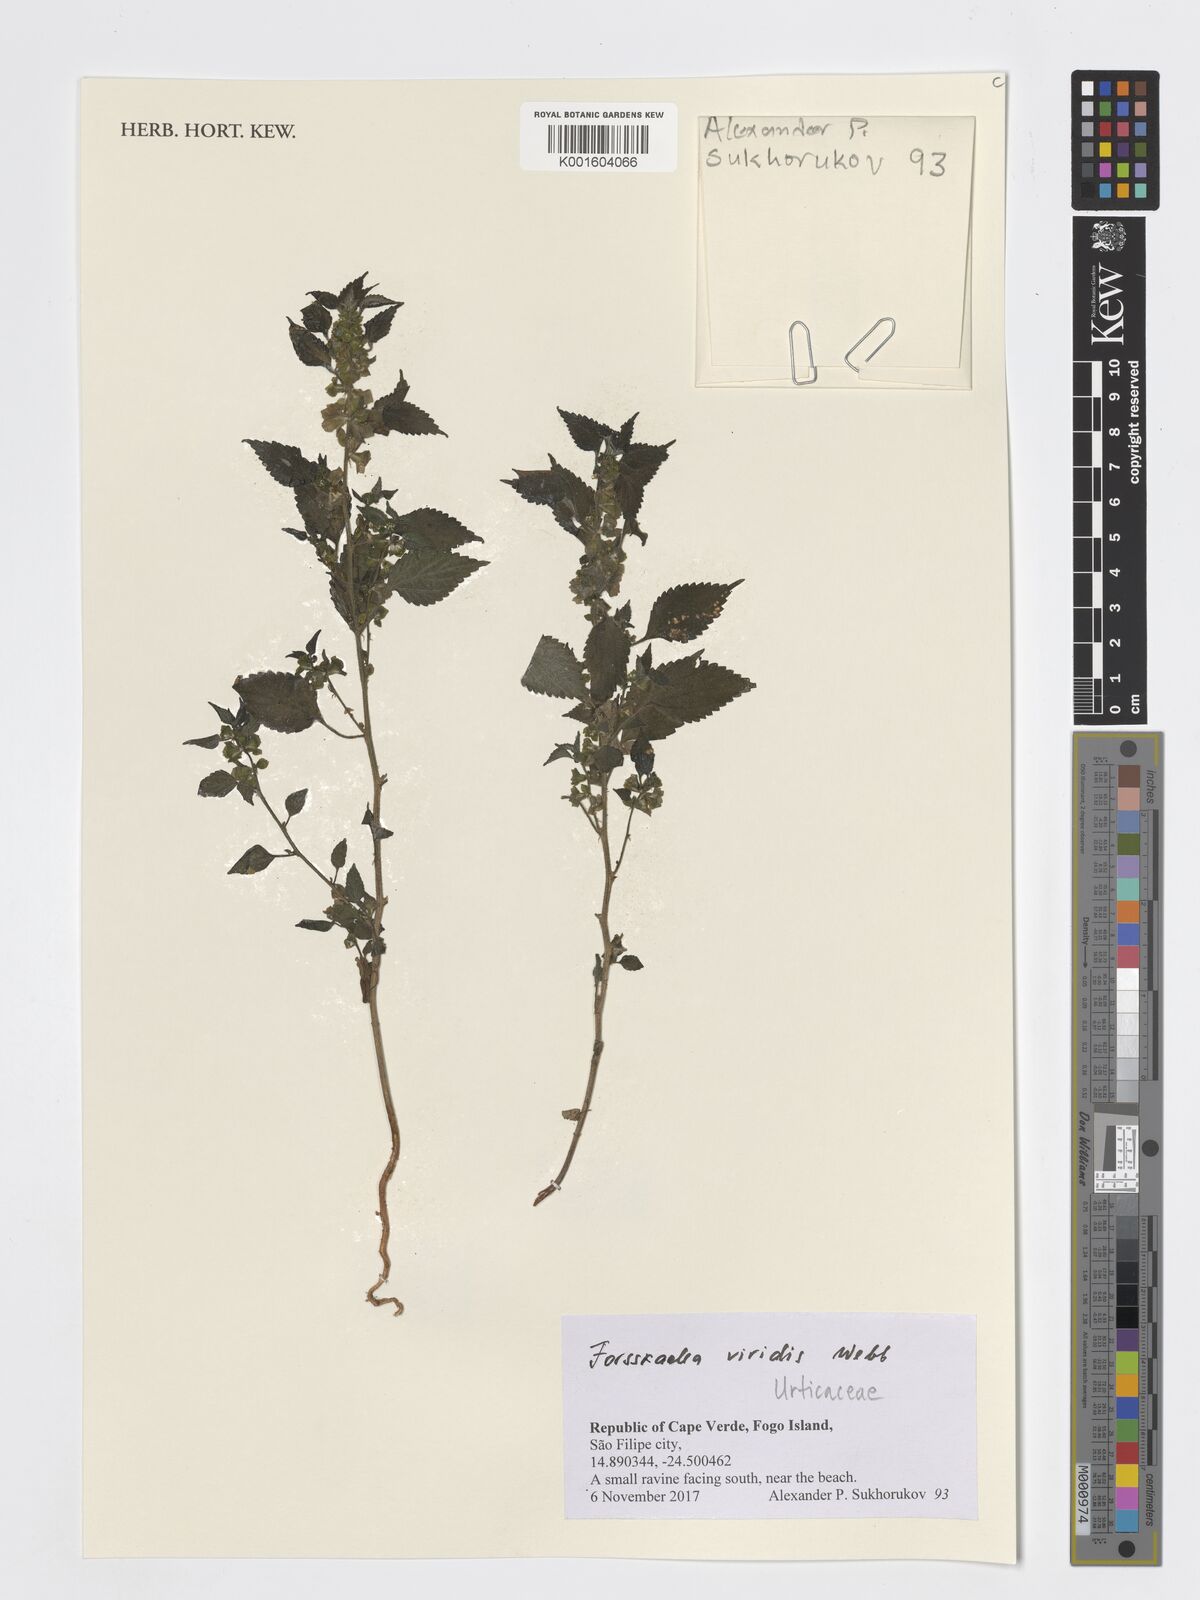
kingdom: Plantae
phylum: Tracheophyta
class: Magnoliopsida
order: Rosales
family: Urticaceae
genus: Forsskaolea
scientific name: Forsskaolea viridis
